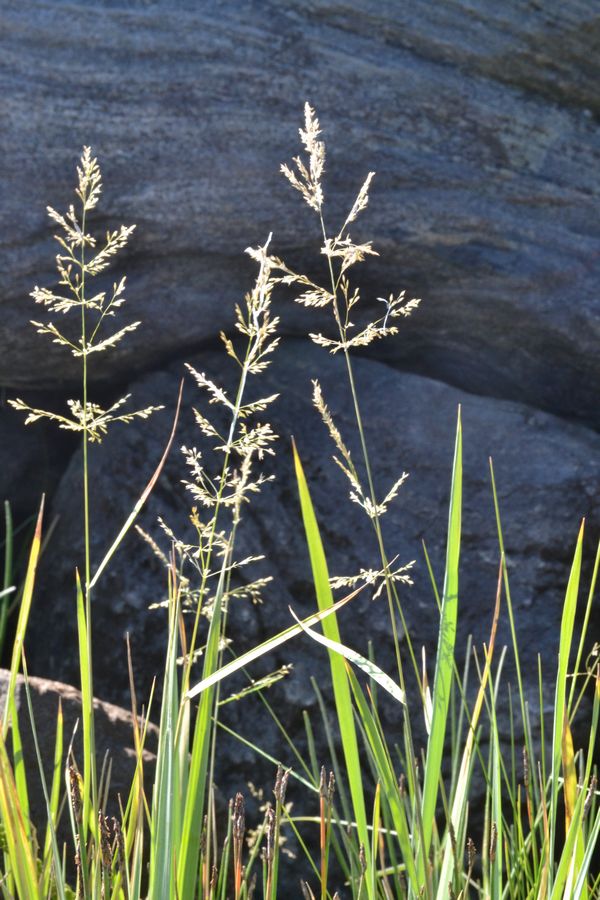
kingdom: Plantae
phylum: Tracheophyta
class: Liliopsida
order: Poales
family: Poaceae
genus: Agrostis
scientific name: Agrostis gigantea
